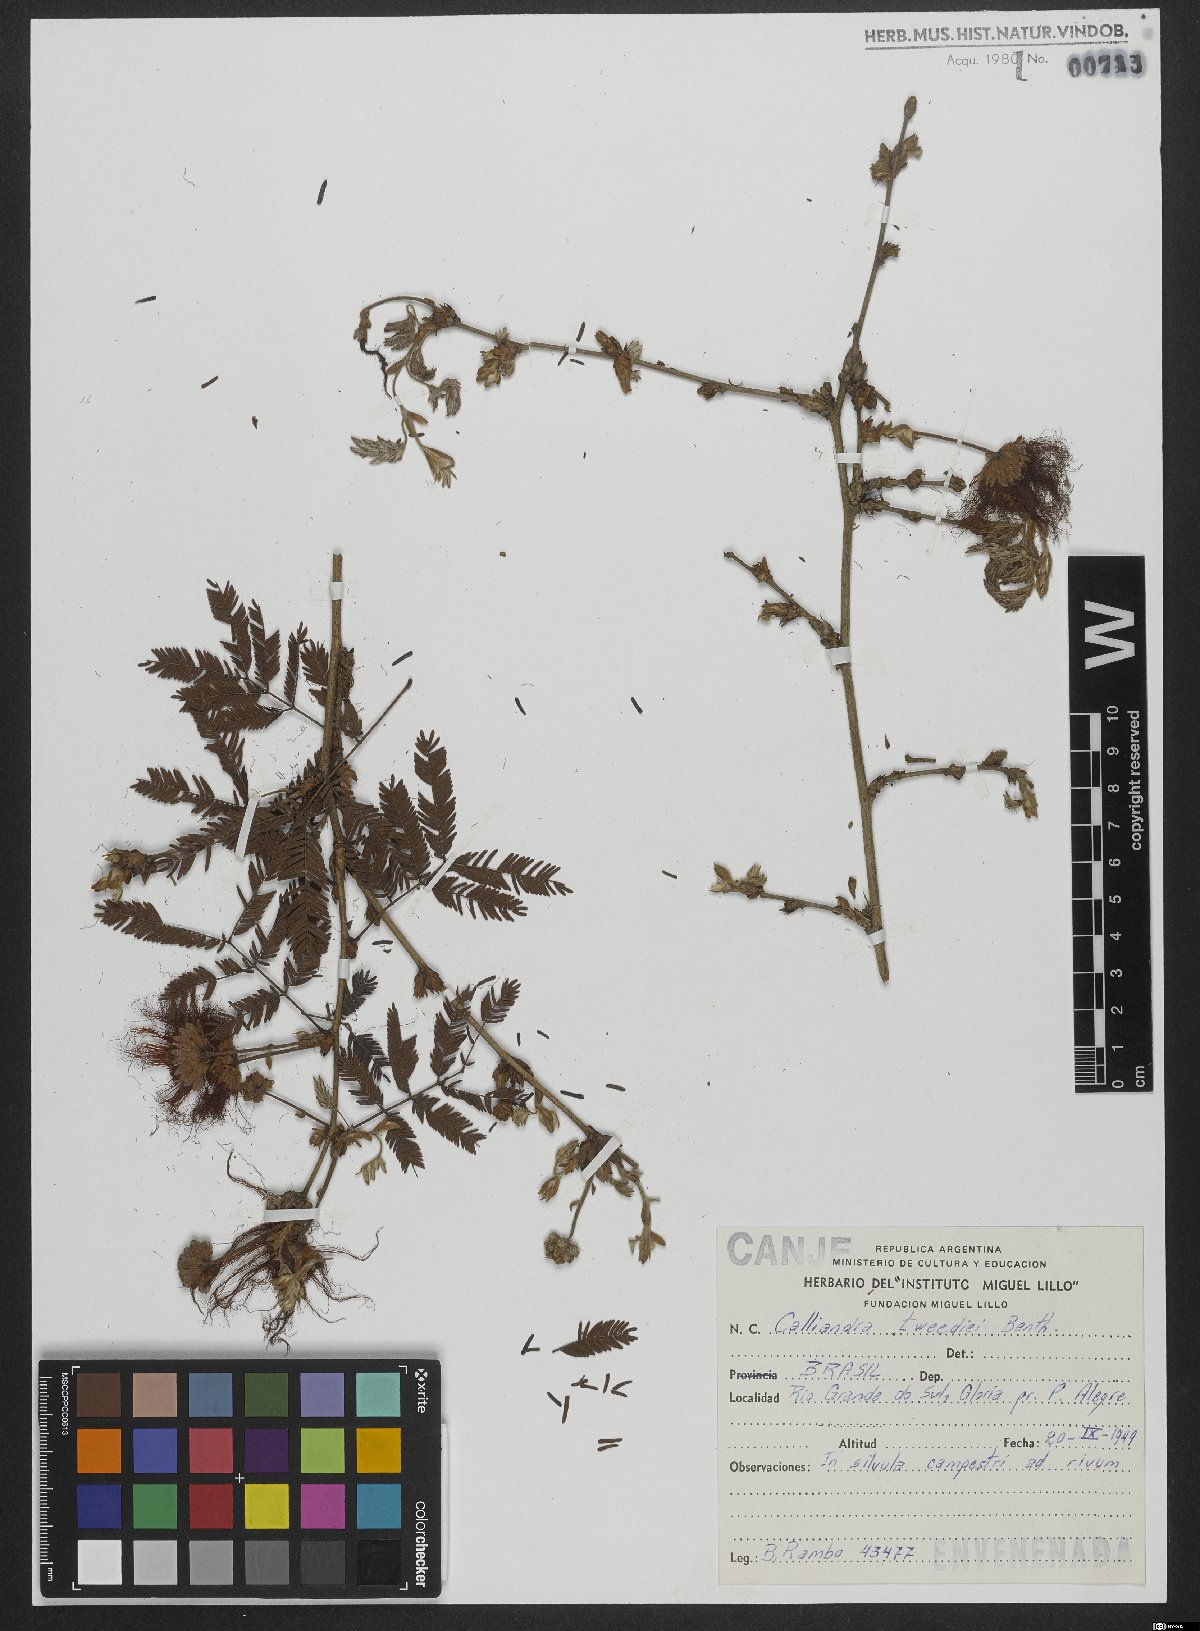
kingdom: Plantae
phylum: Tracheophyta
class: Magnoliopsida
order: Fabales
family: Fabaceae
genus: Calliandra
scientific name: Calliandra tweedii
